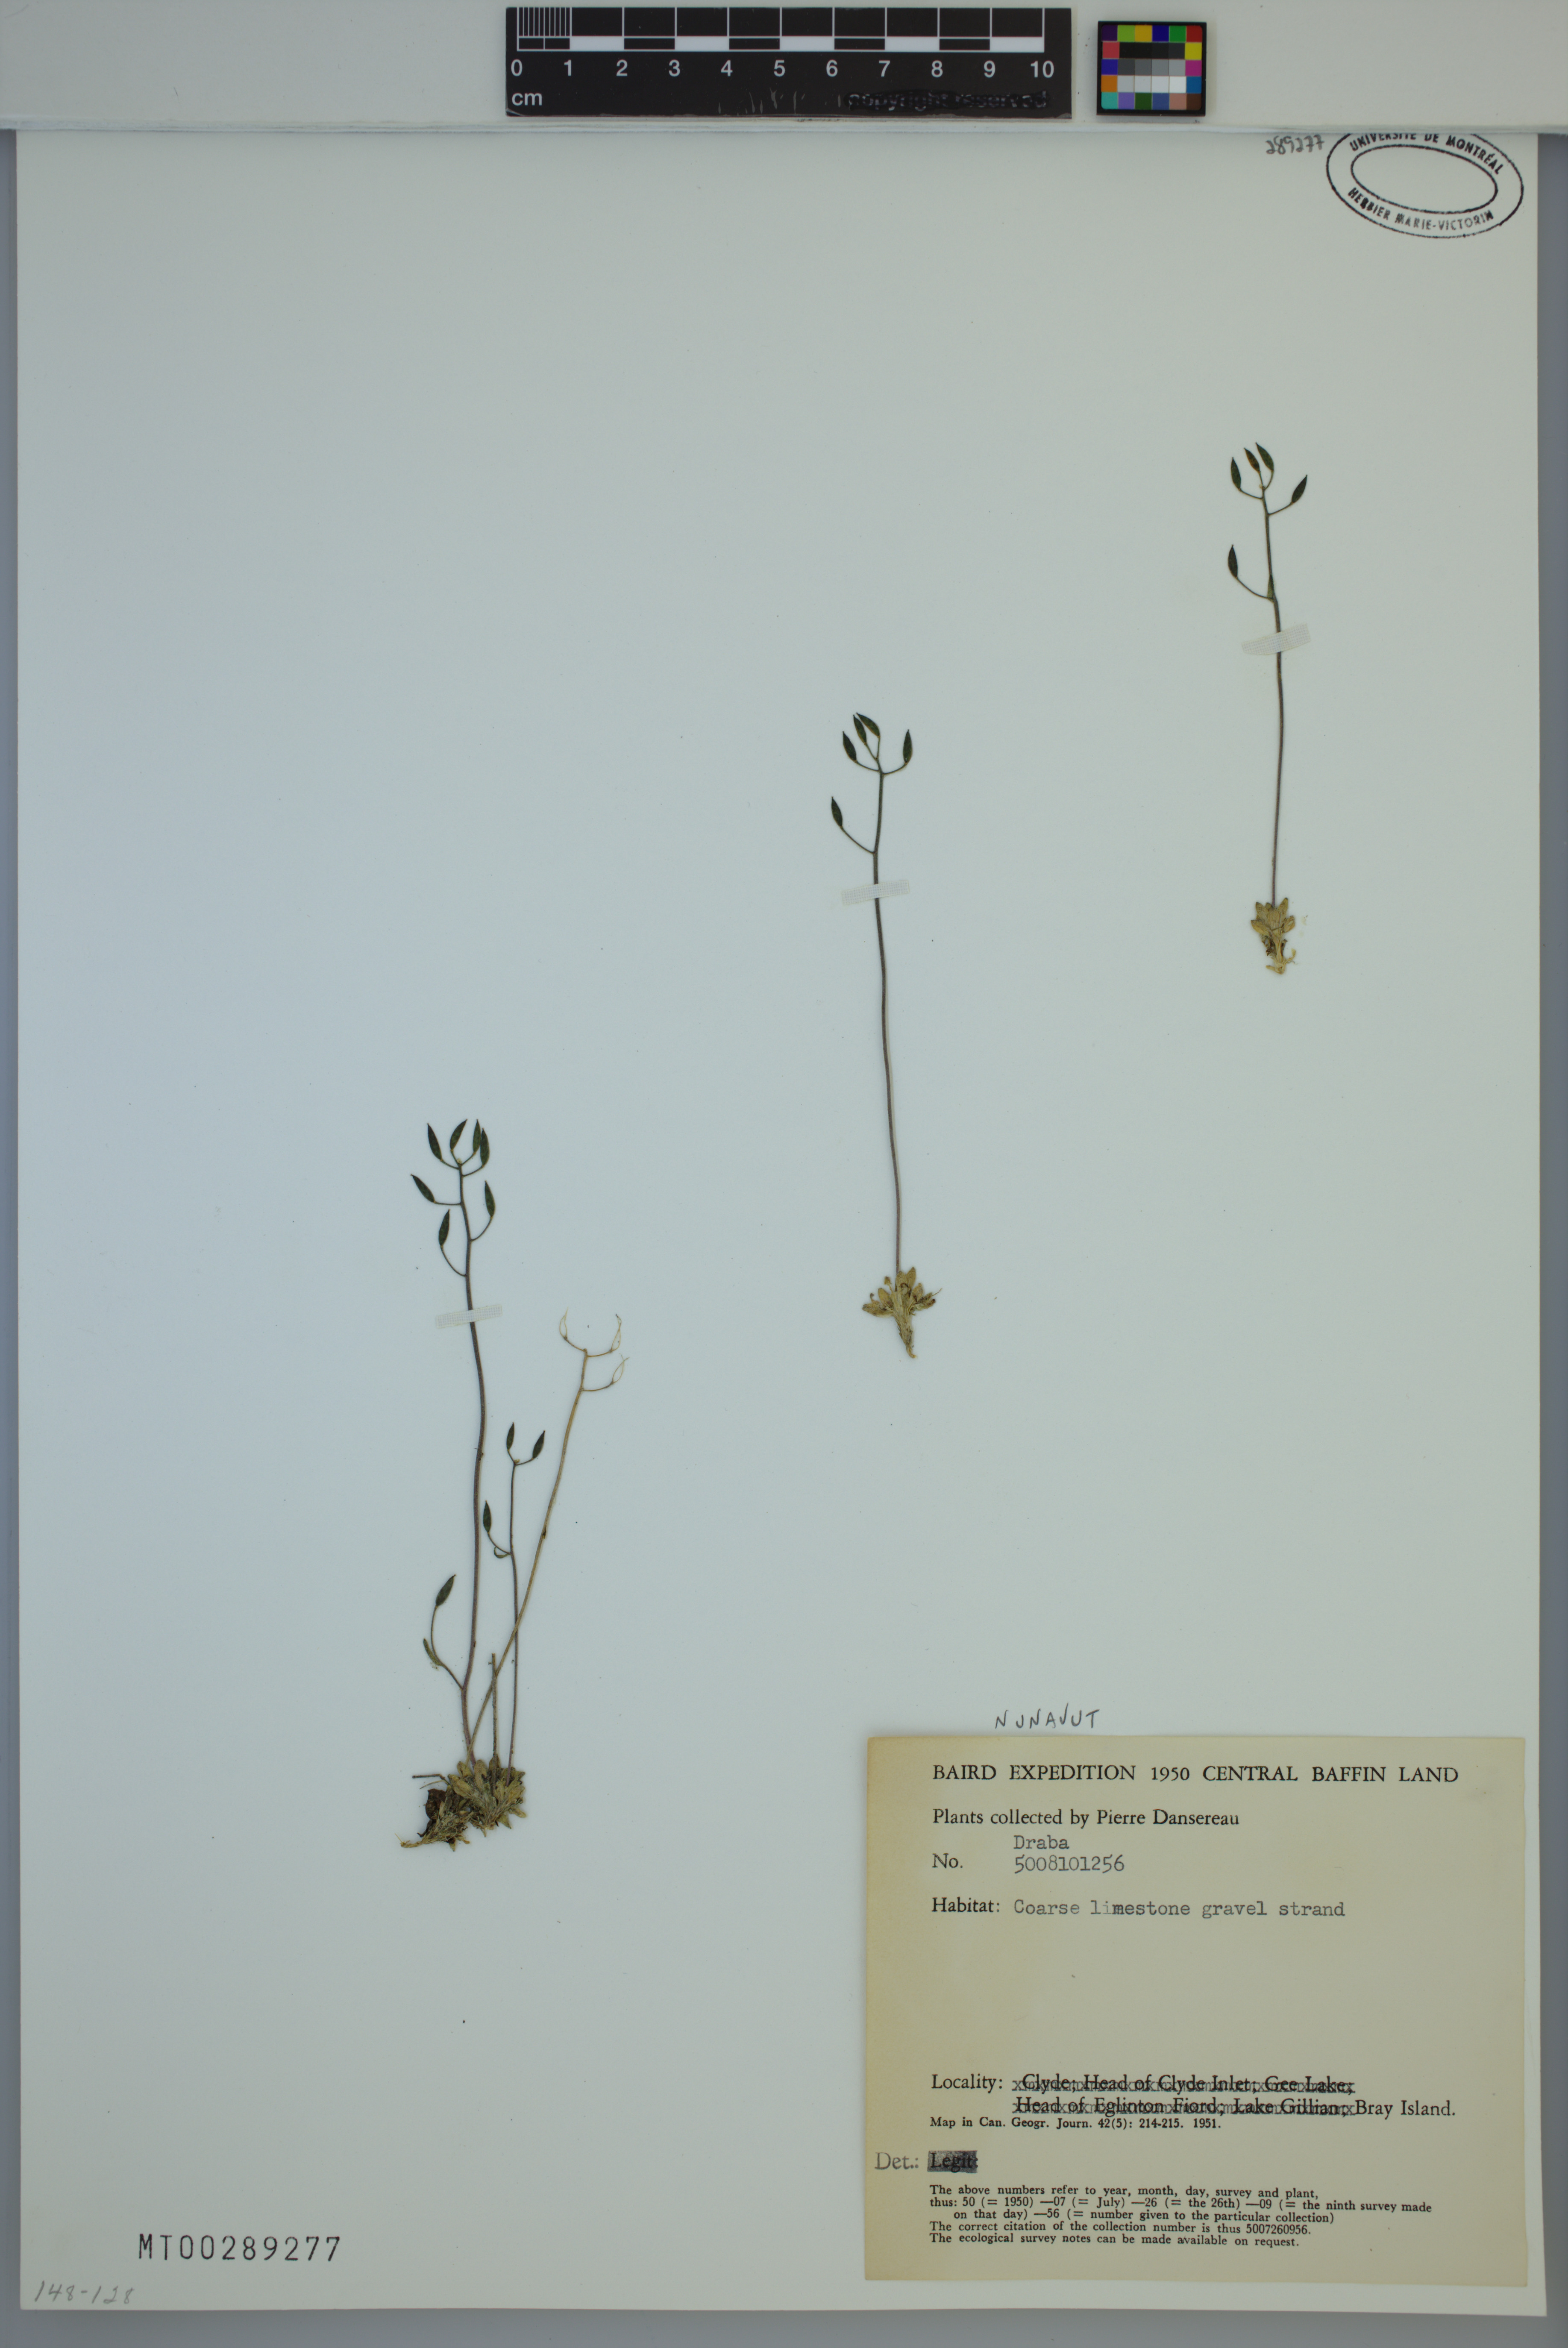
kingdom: Plantae
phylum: Tracheophyta
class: Magnoliopsida
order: Brassicales
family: Brassicaceae
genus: Draba
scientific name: Draba
